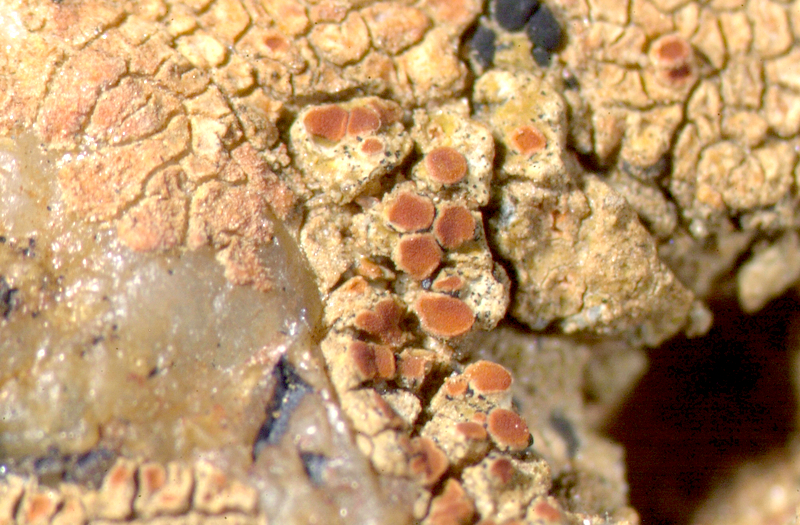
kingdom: Fungi
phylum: Ascomycota
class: Lecanoromycetes
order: Teloschistales
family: Teloschistaceae
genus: Caloplaca
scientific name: Caloplaca
